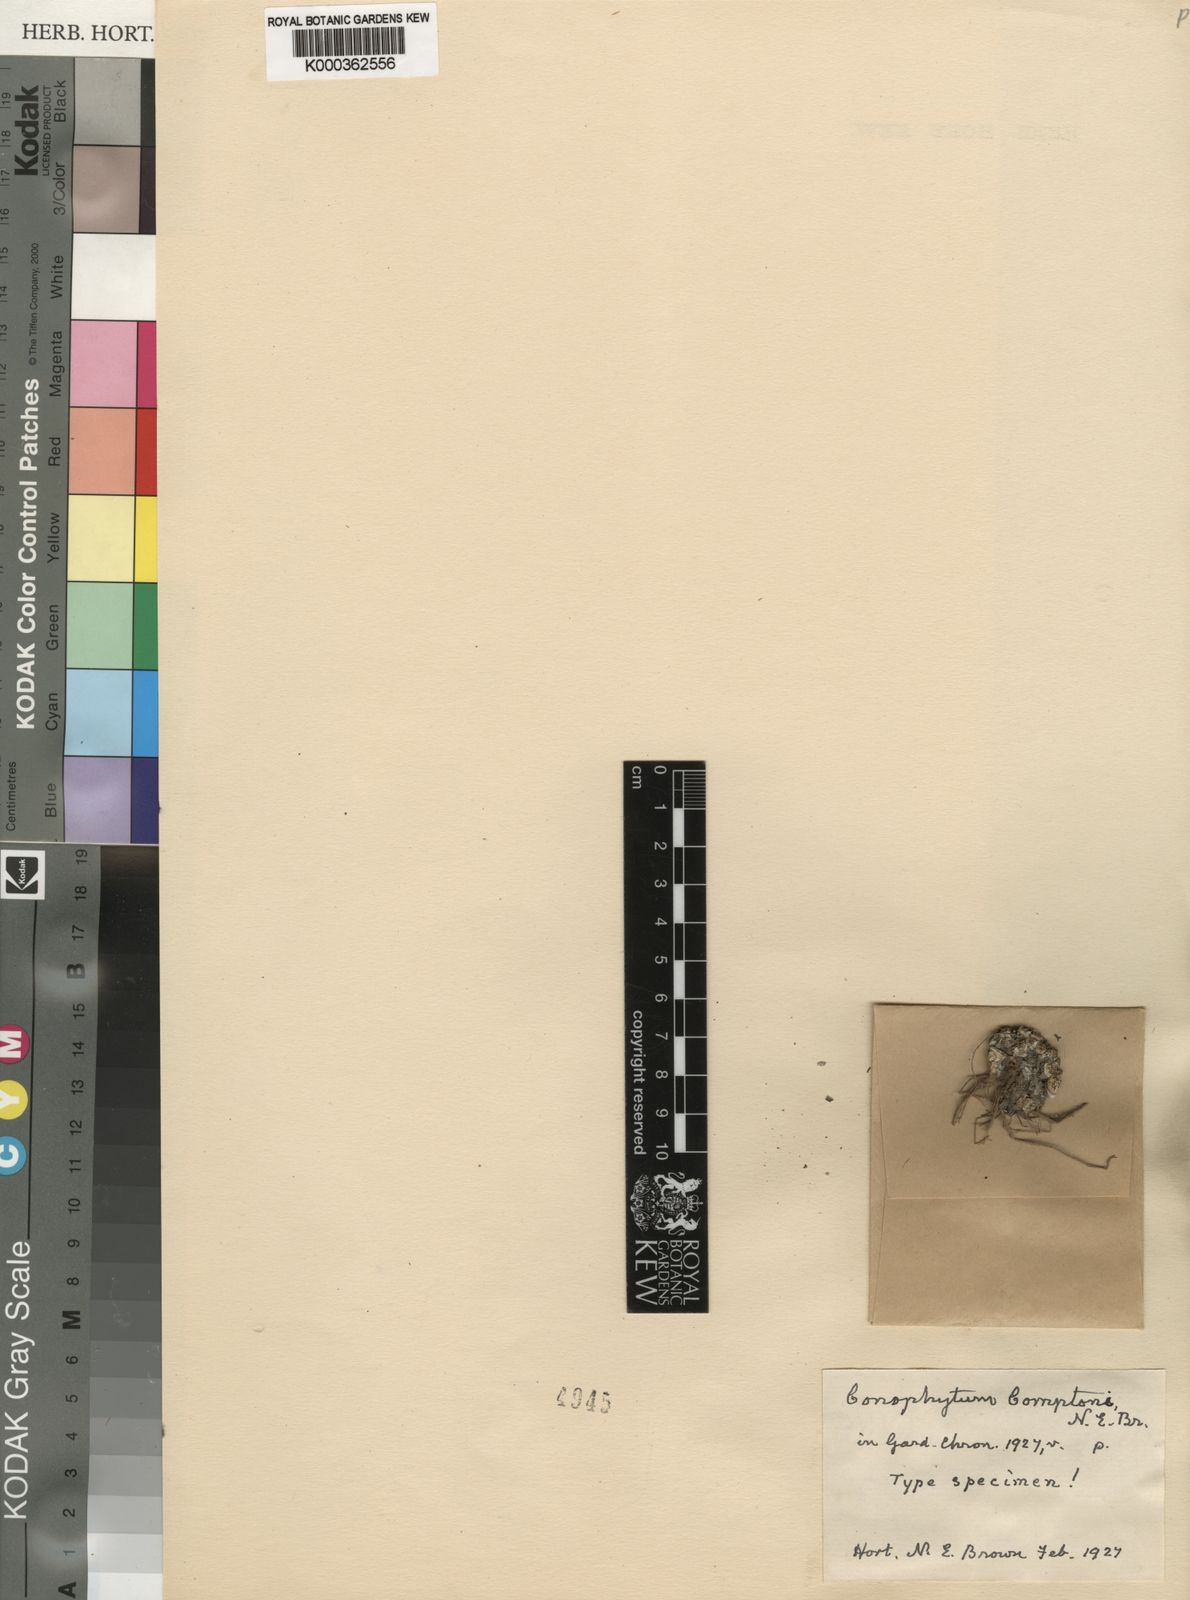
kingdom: Plantae
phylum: Tracheophyta
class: Magnoliopsida
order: Caryophyllales
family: Aizoaceae
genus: Conophytum
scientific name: Conophytum comptonii
